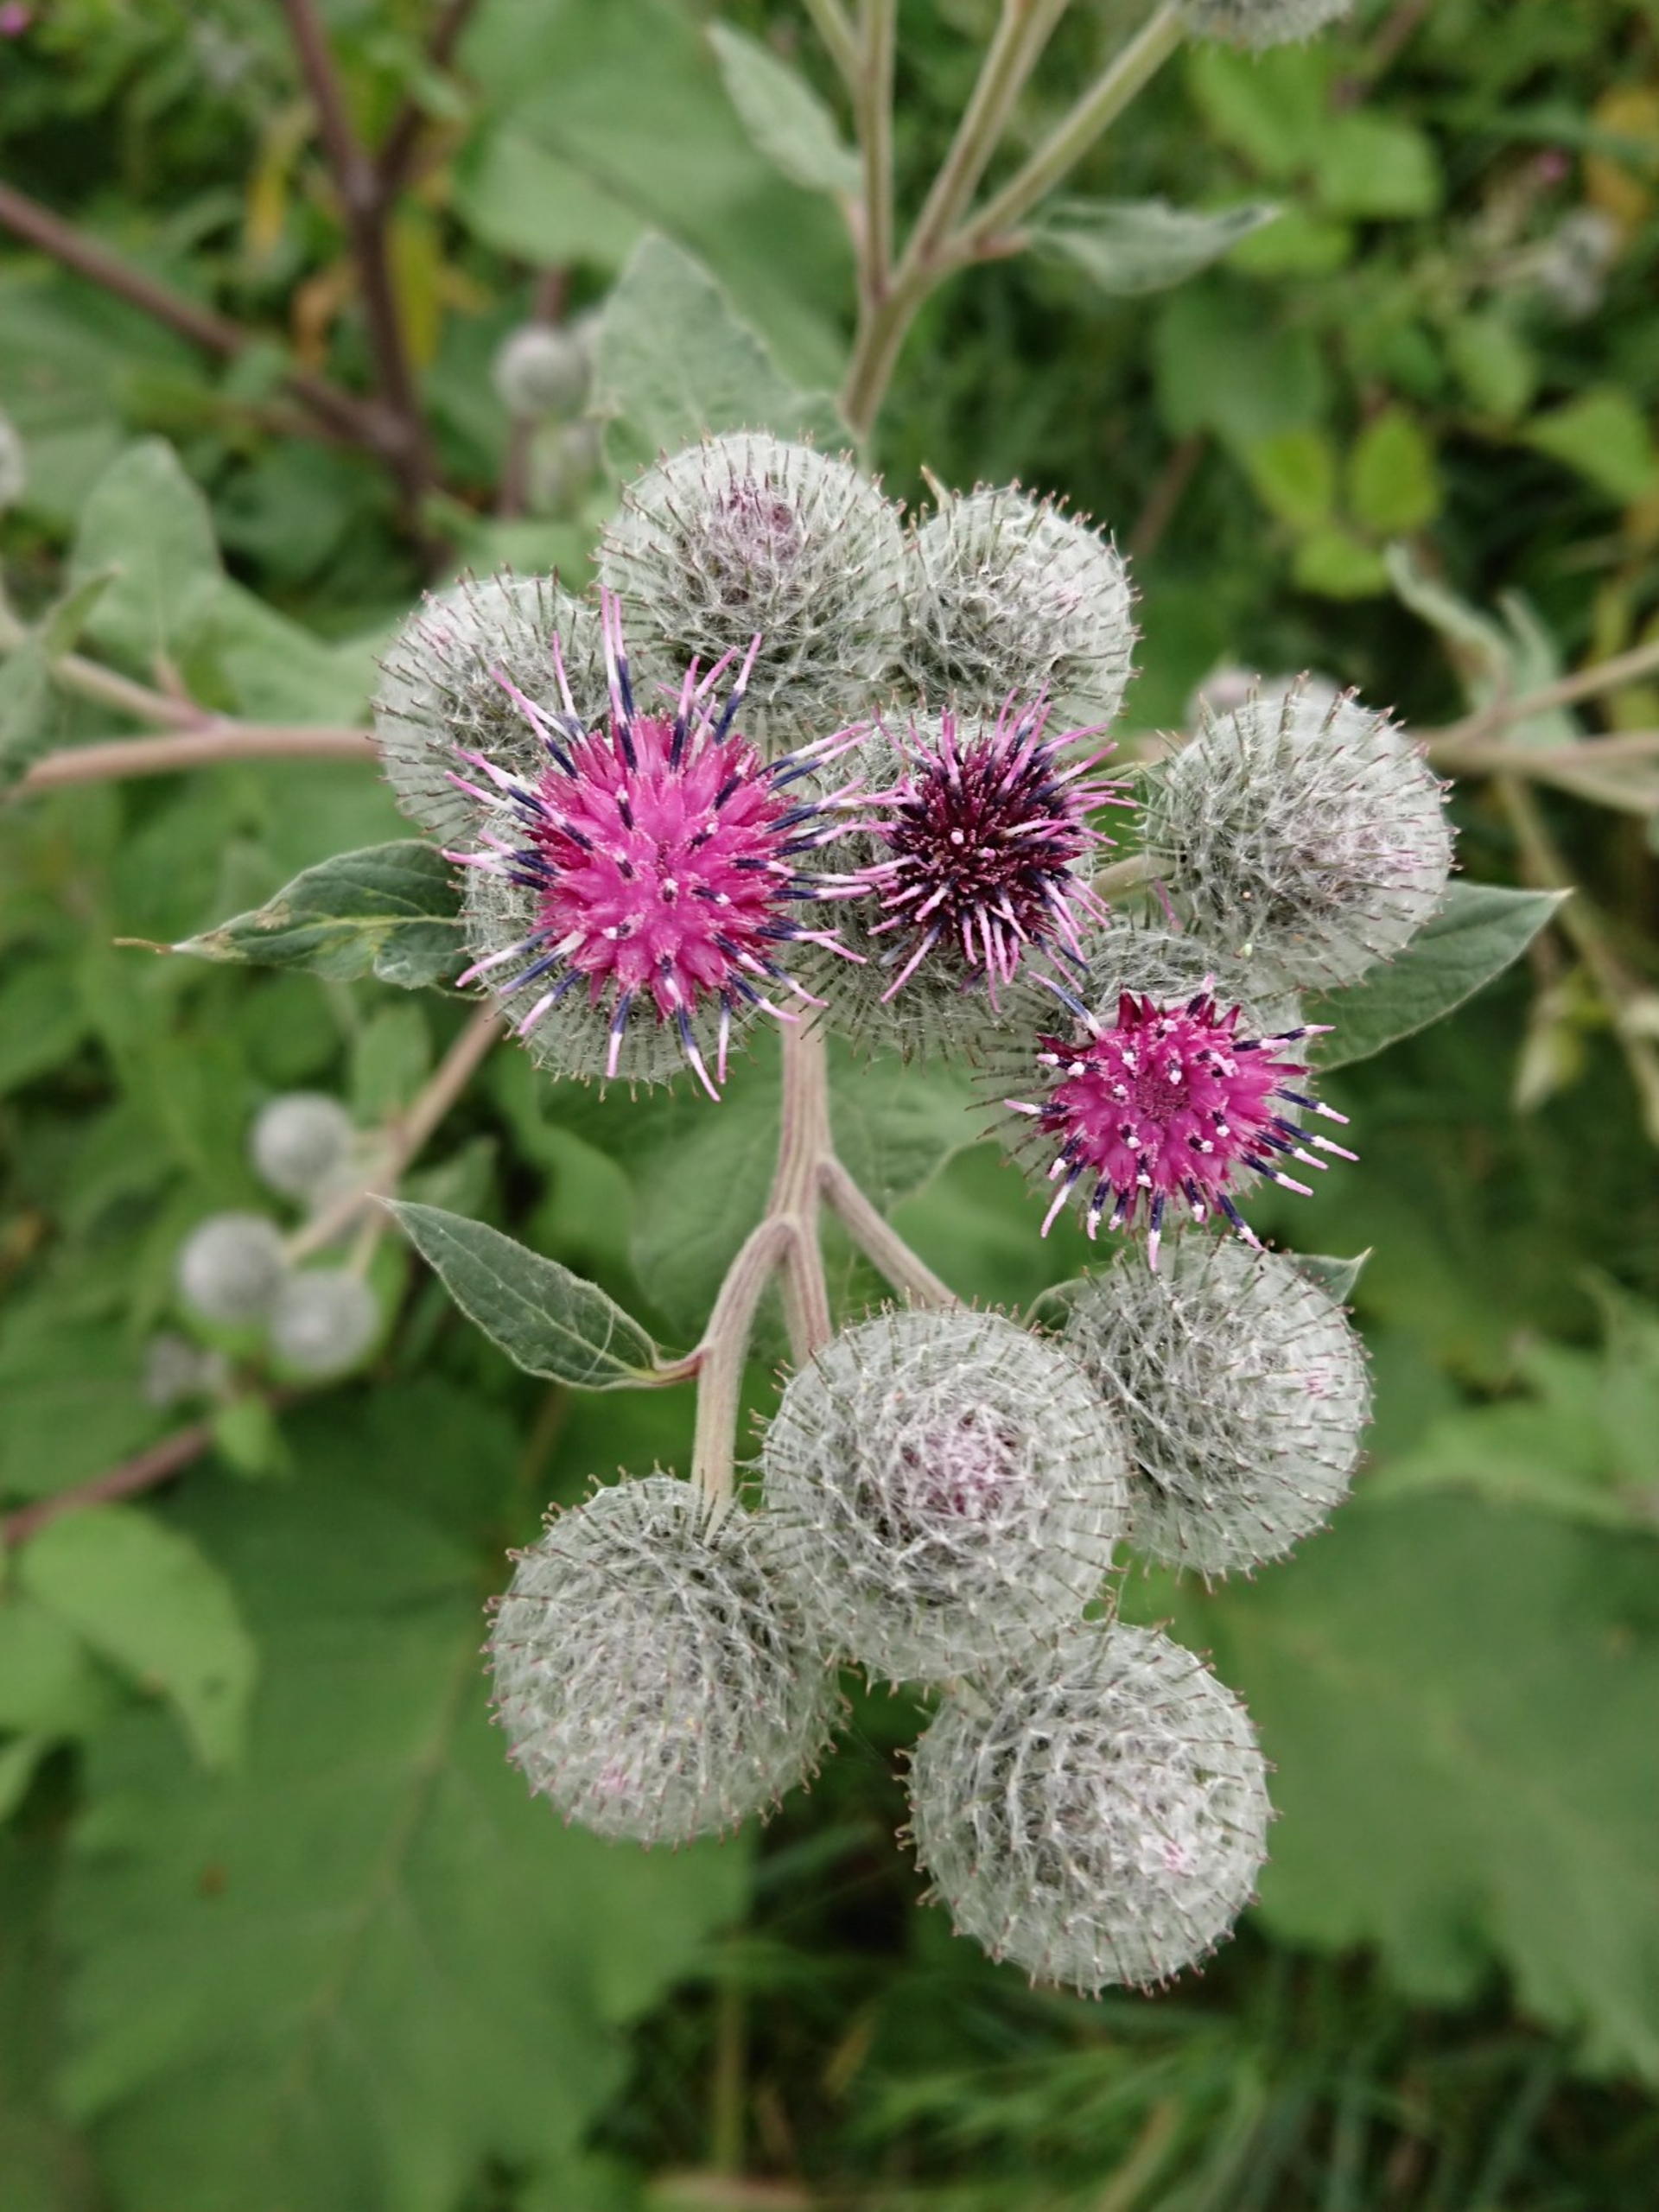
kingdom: Plantae
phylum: Tracheophyta
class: Magnoliopsida
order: Asterales
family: Asteraceae
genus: Arctium
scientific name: Arctium tomentosum
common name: Filtet burre
